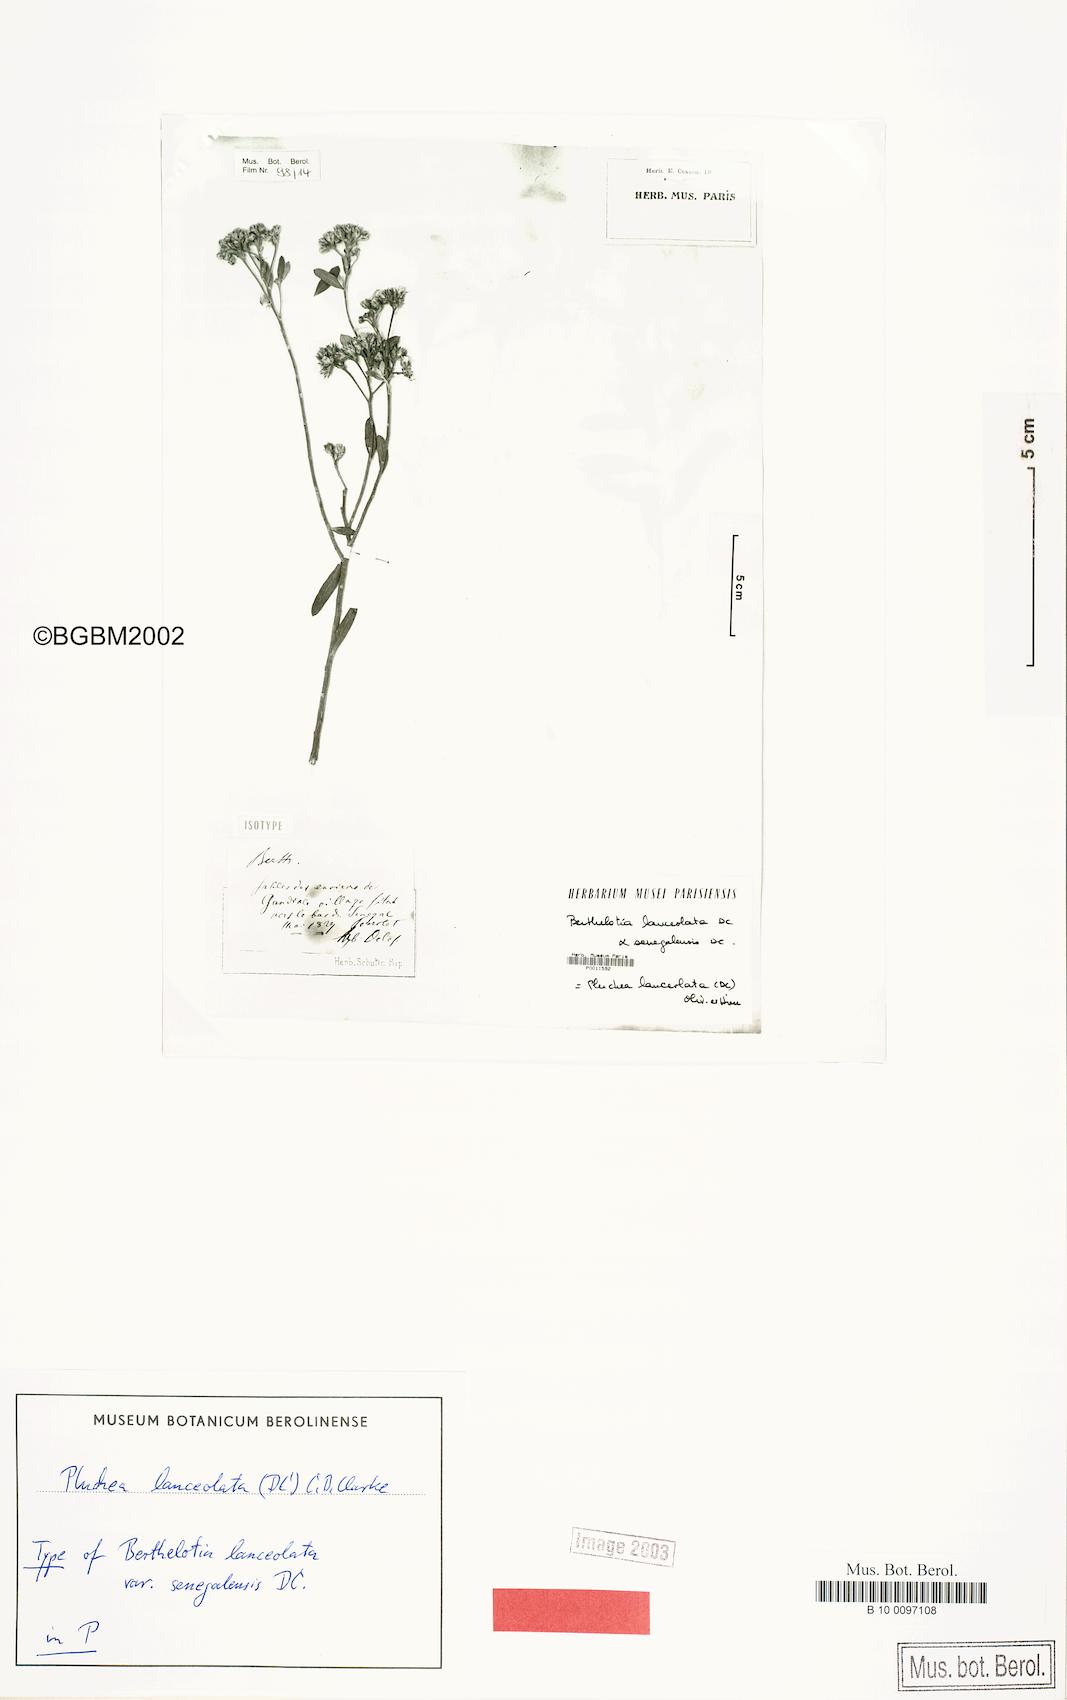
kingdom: Plantae
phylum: Tracheophyta
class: Magnoliopsida
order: Asterales
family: Asteraceae
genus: Pluchea
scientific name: Pluchea lanceolata
